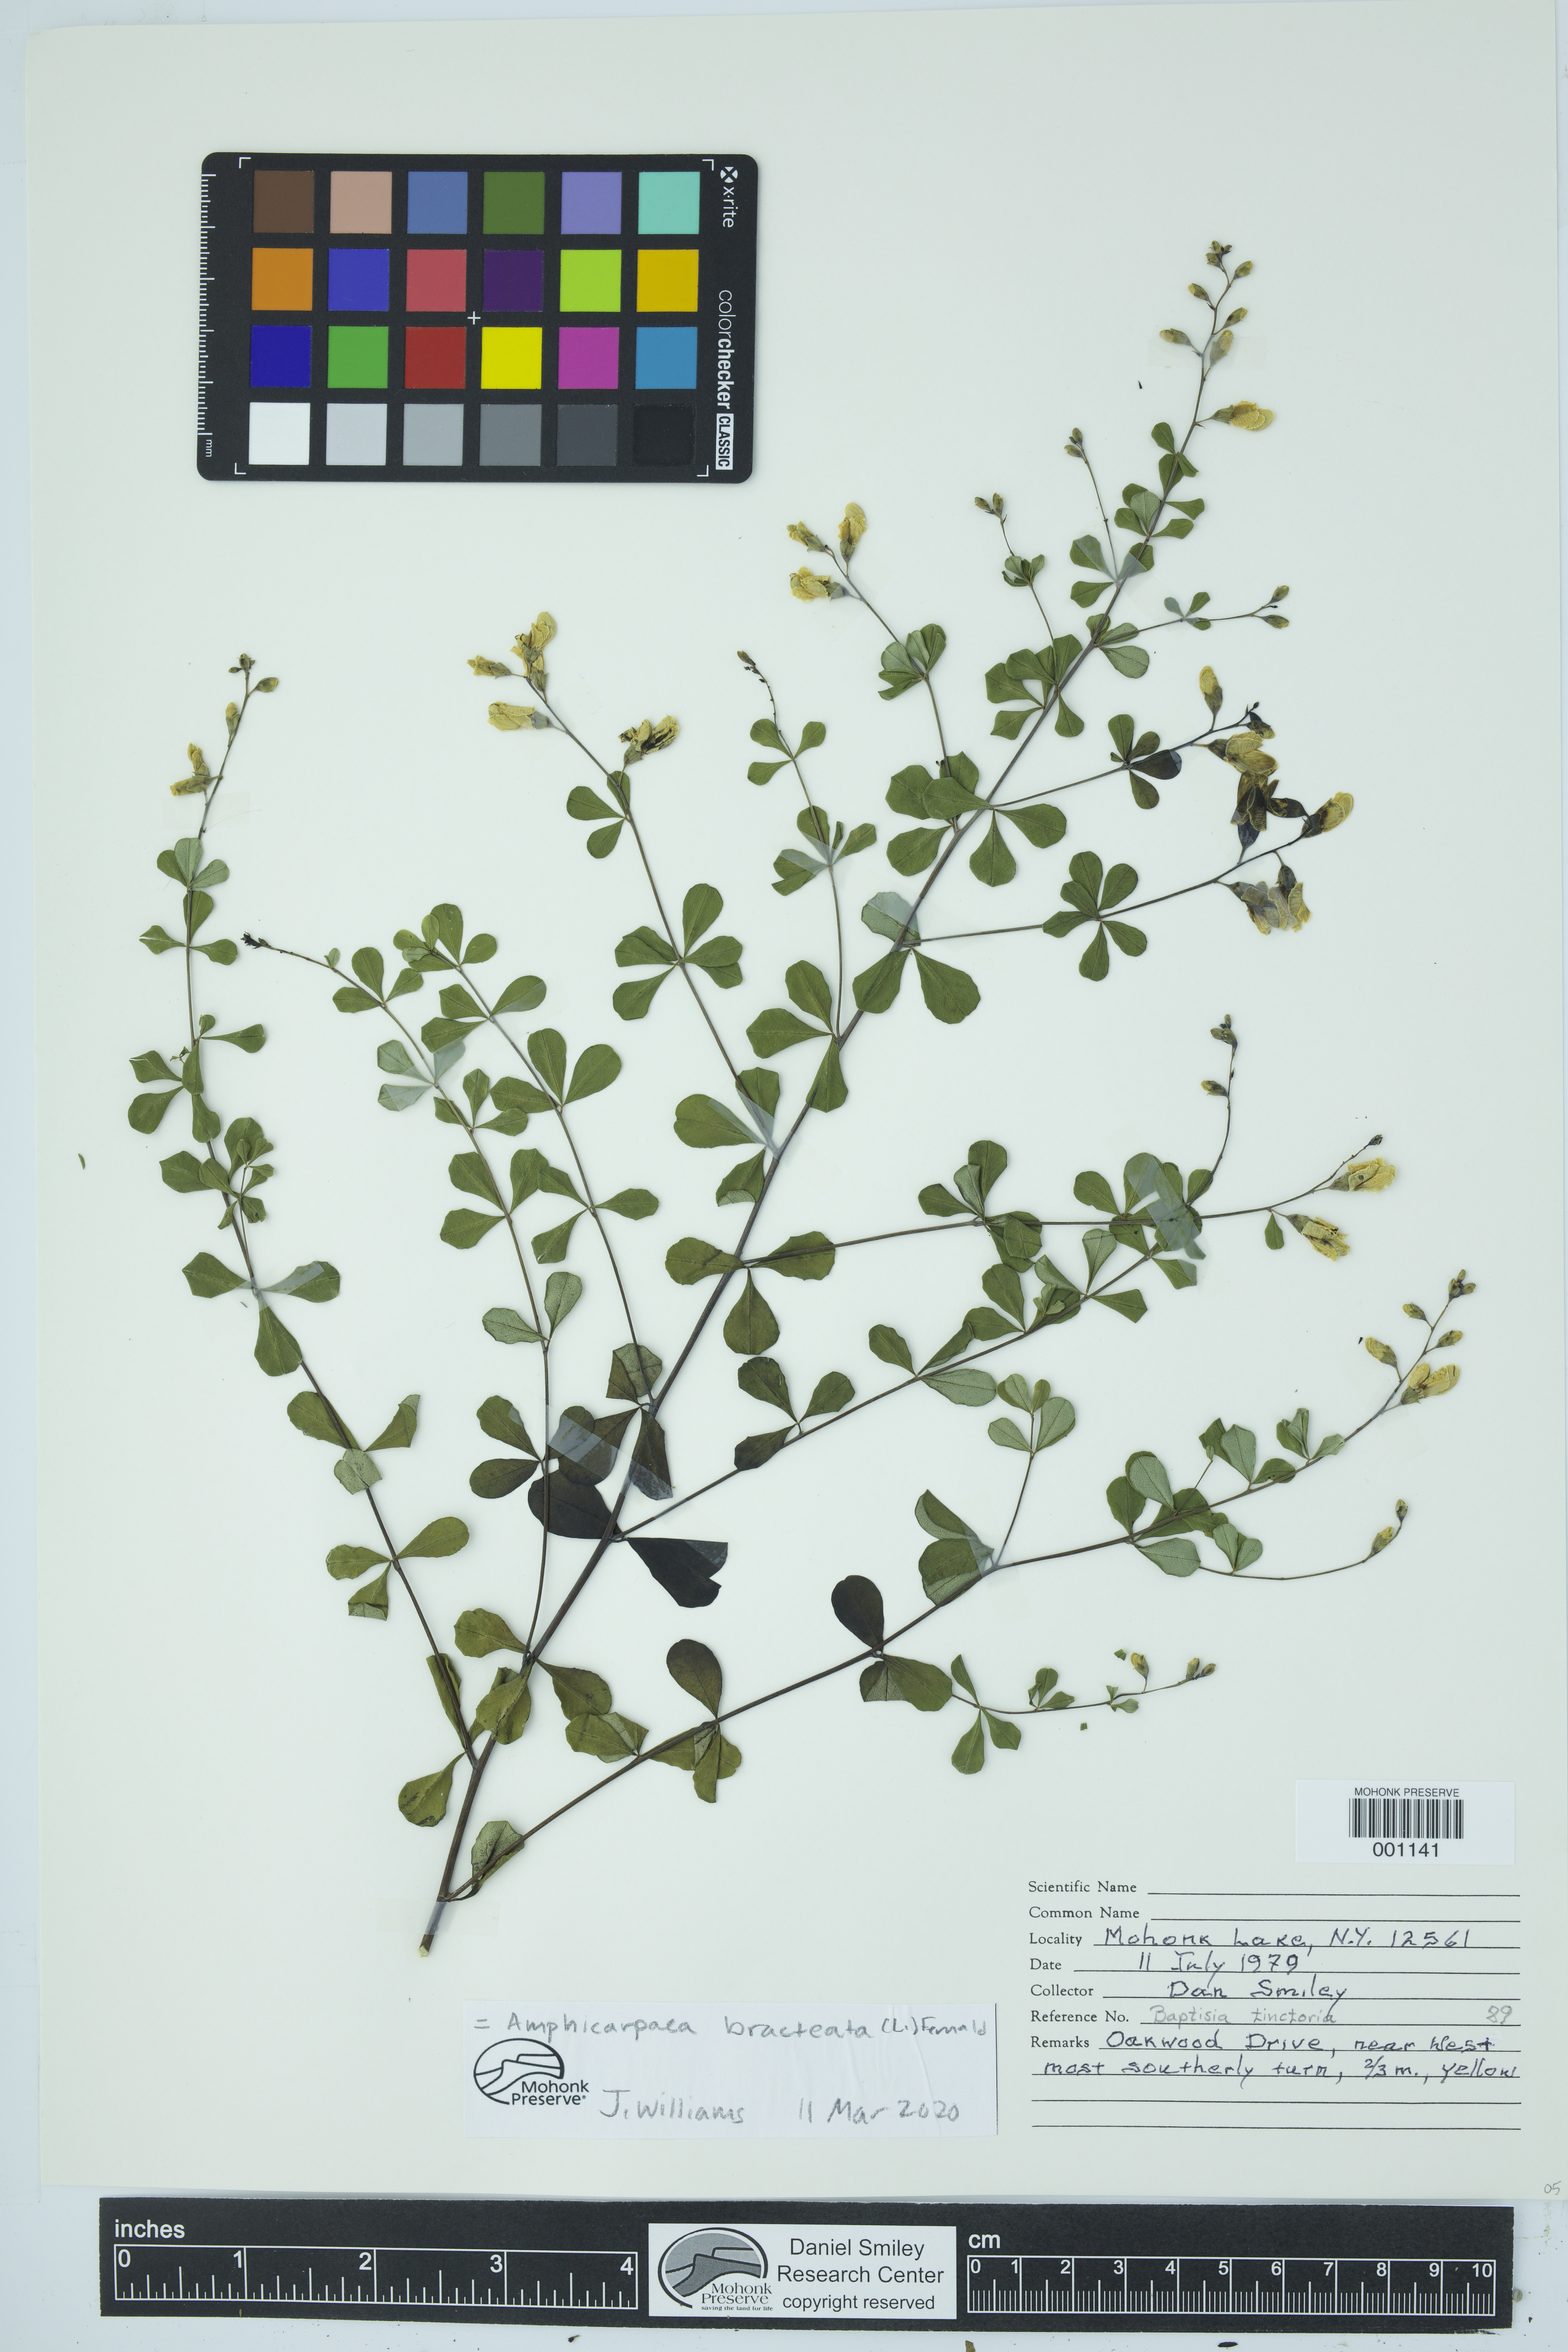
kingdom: Plantae
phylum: Tracheophyta
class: Magnoliopsida
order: Fabales
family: Fabaceae
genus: Baptisia
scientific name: Baptisia tinctoria
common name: Wild indigo
